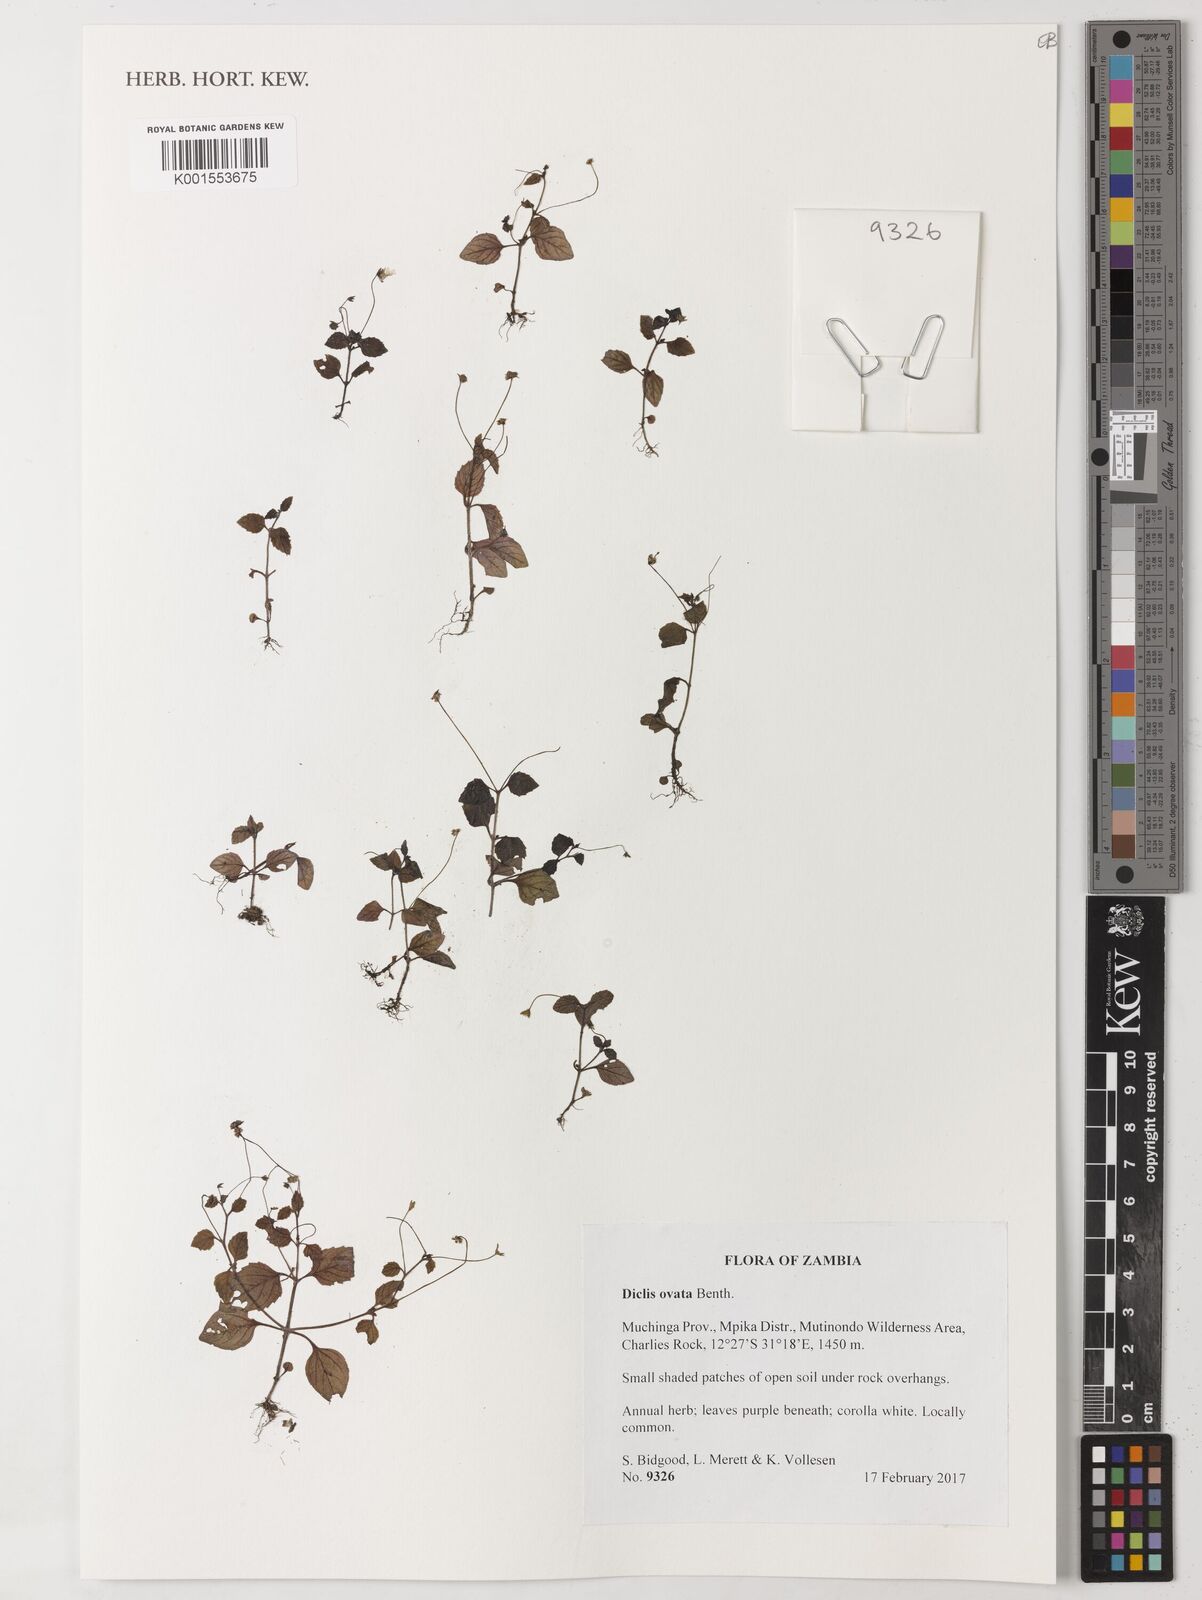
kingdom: Plantae
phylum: Tracheophyta
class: Magnoliopsida
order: Lamiales
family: Scrophulariaceae
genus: Diclis
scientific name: Diclis ovata
